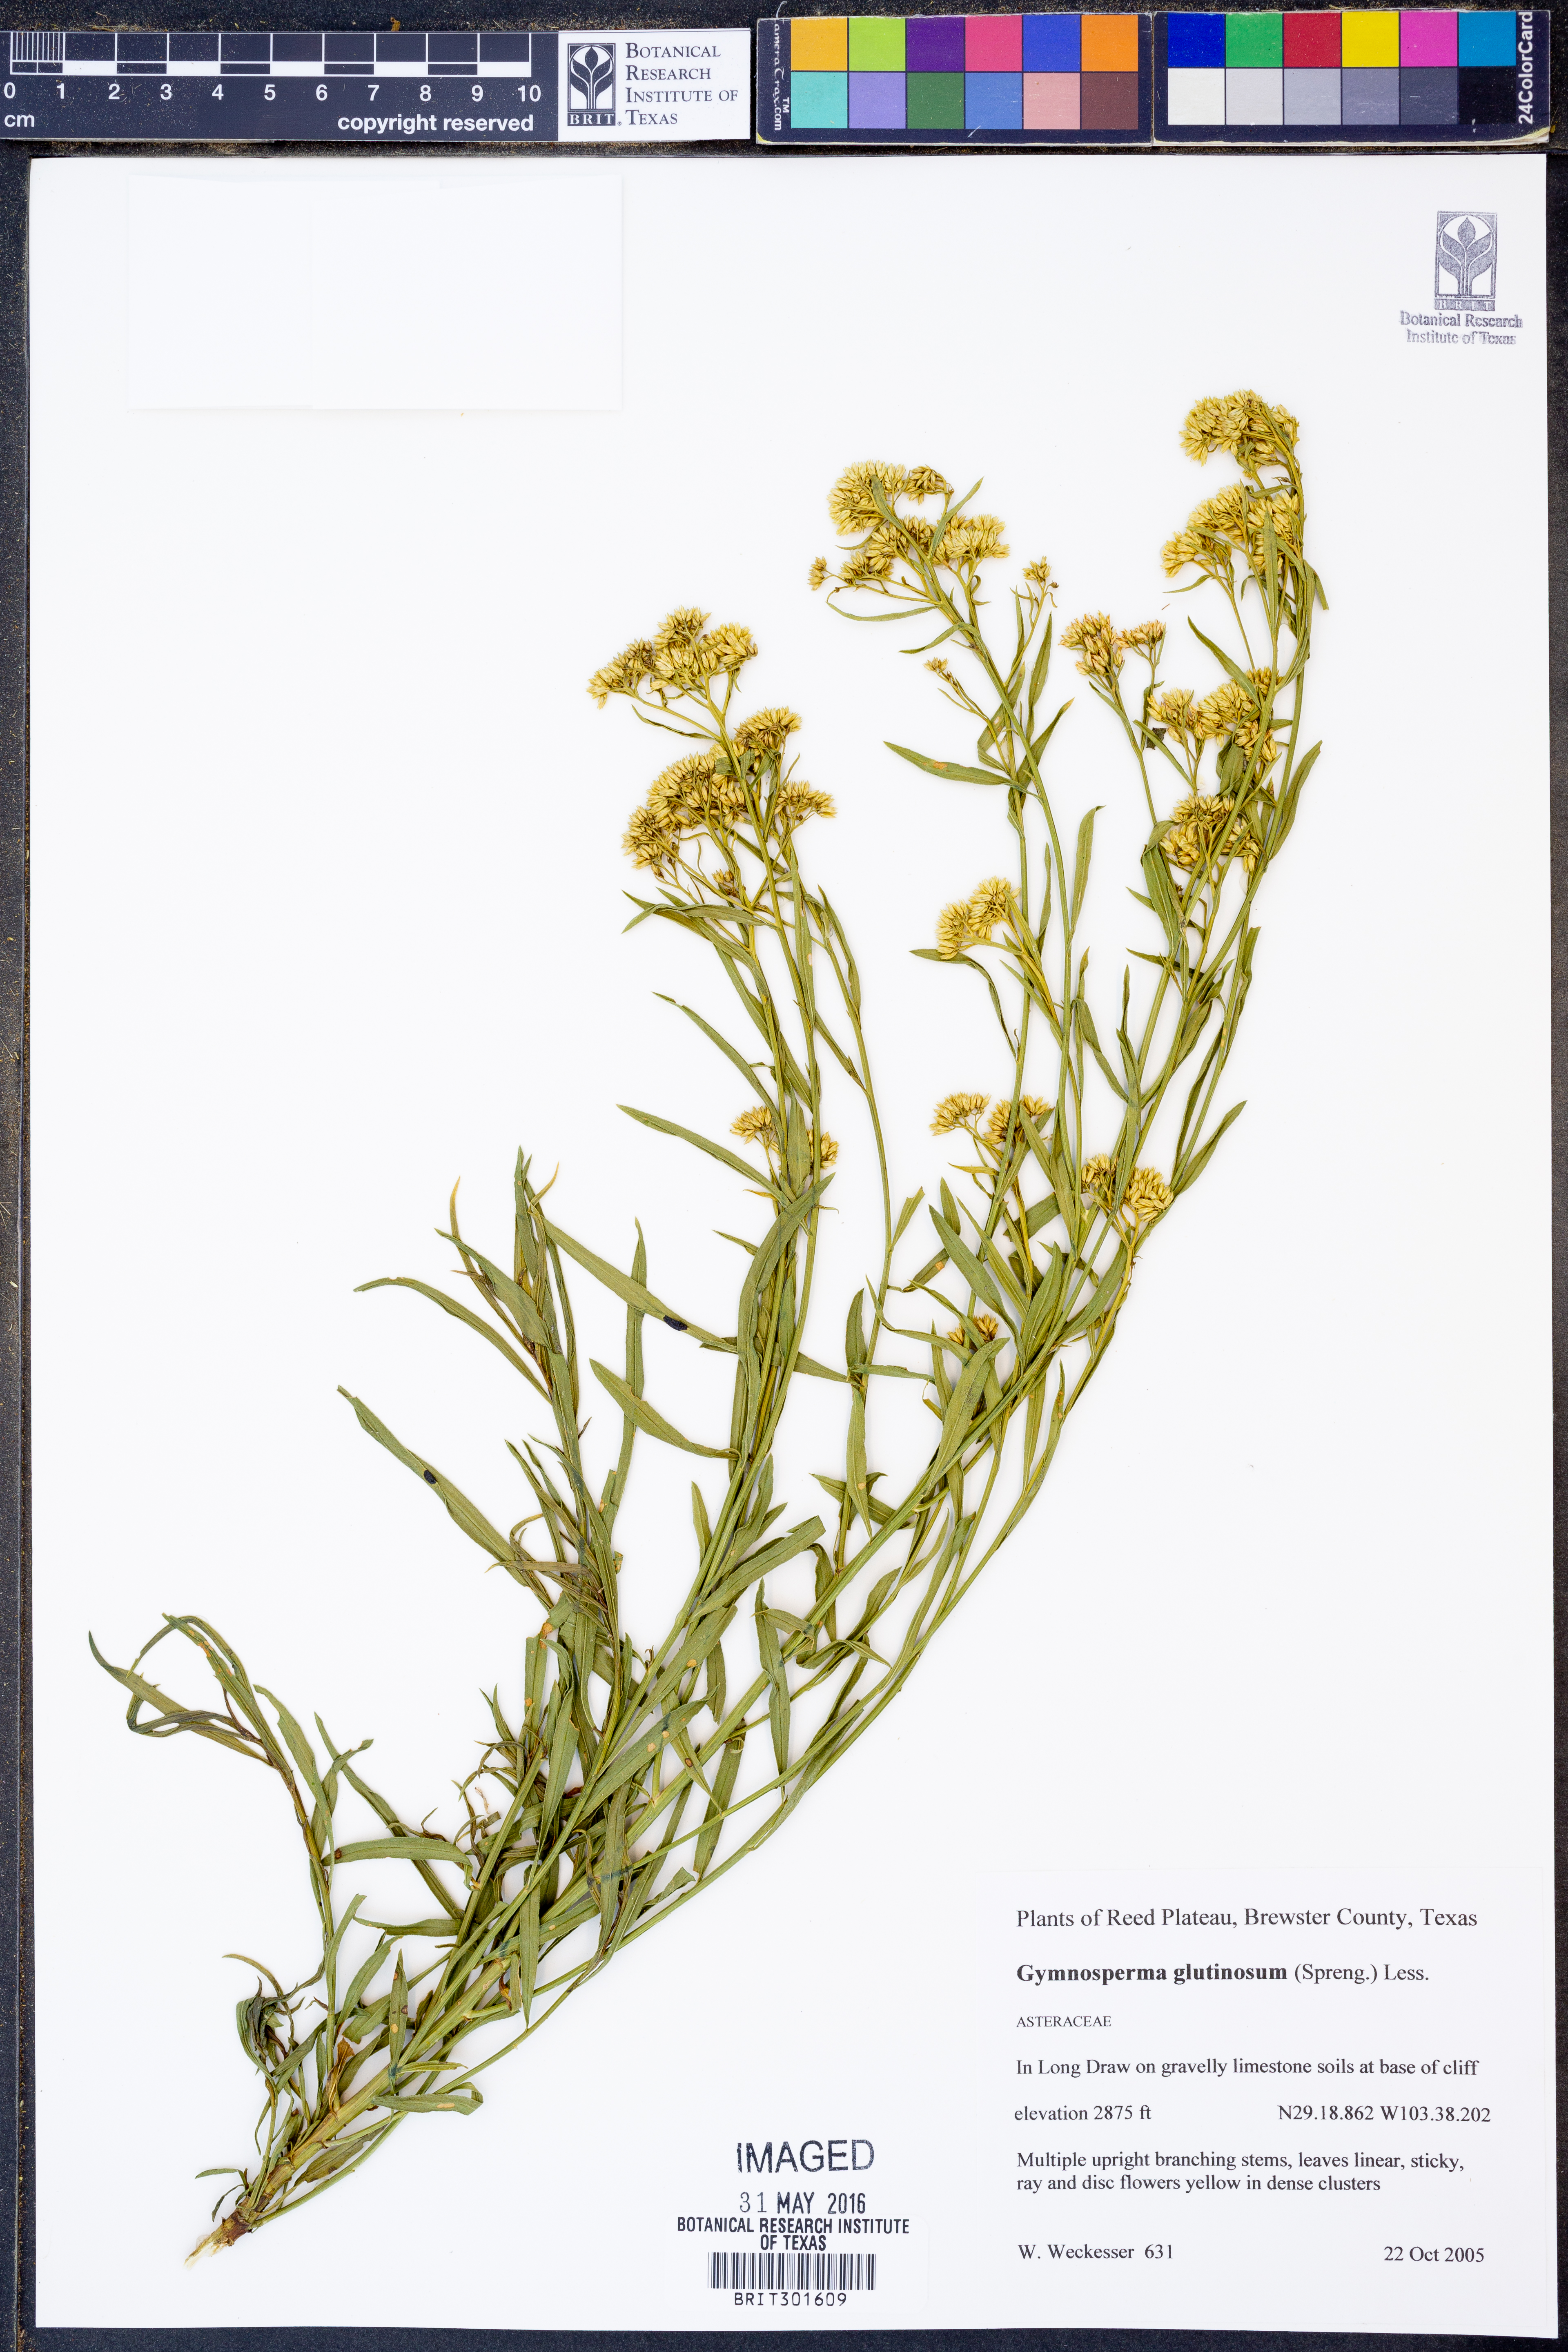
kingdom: Plantae
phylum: Tracheophyta
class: Magnoliopsida
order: Asterales
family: Asteraceae
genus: Gymnosperma
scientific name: Gymnosperma glutinosum
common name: Gumhead
